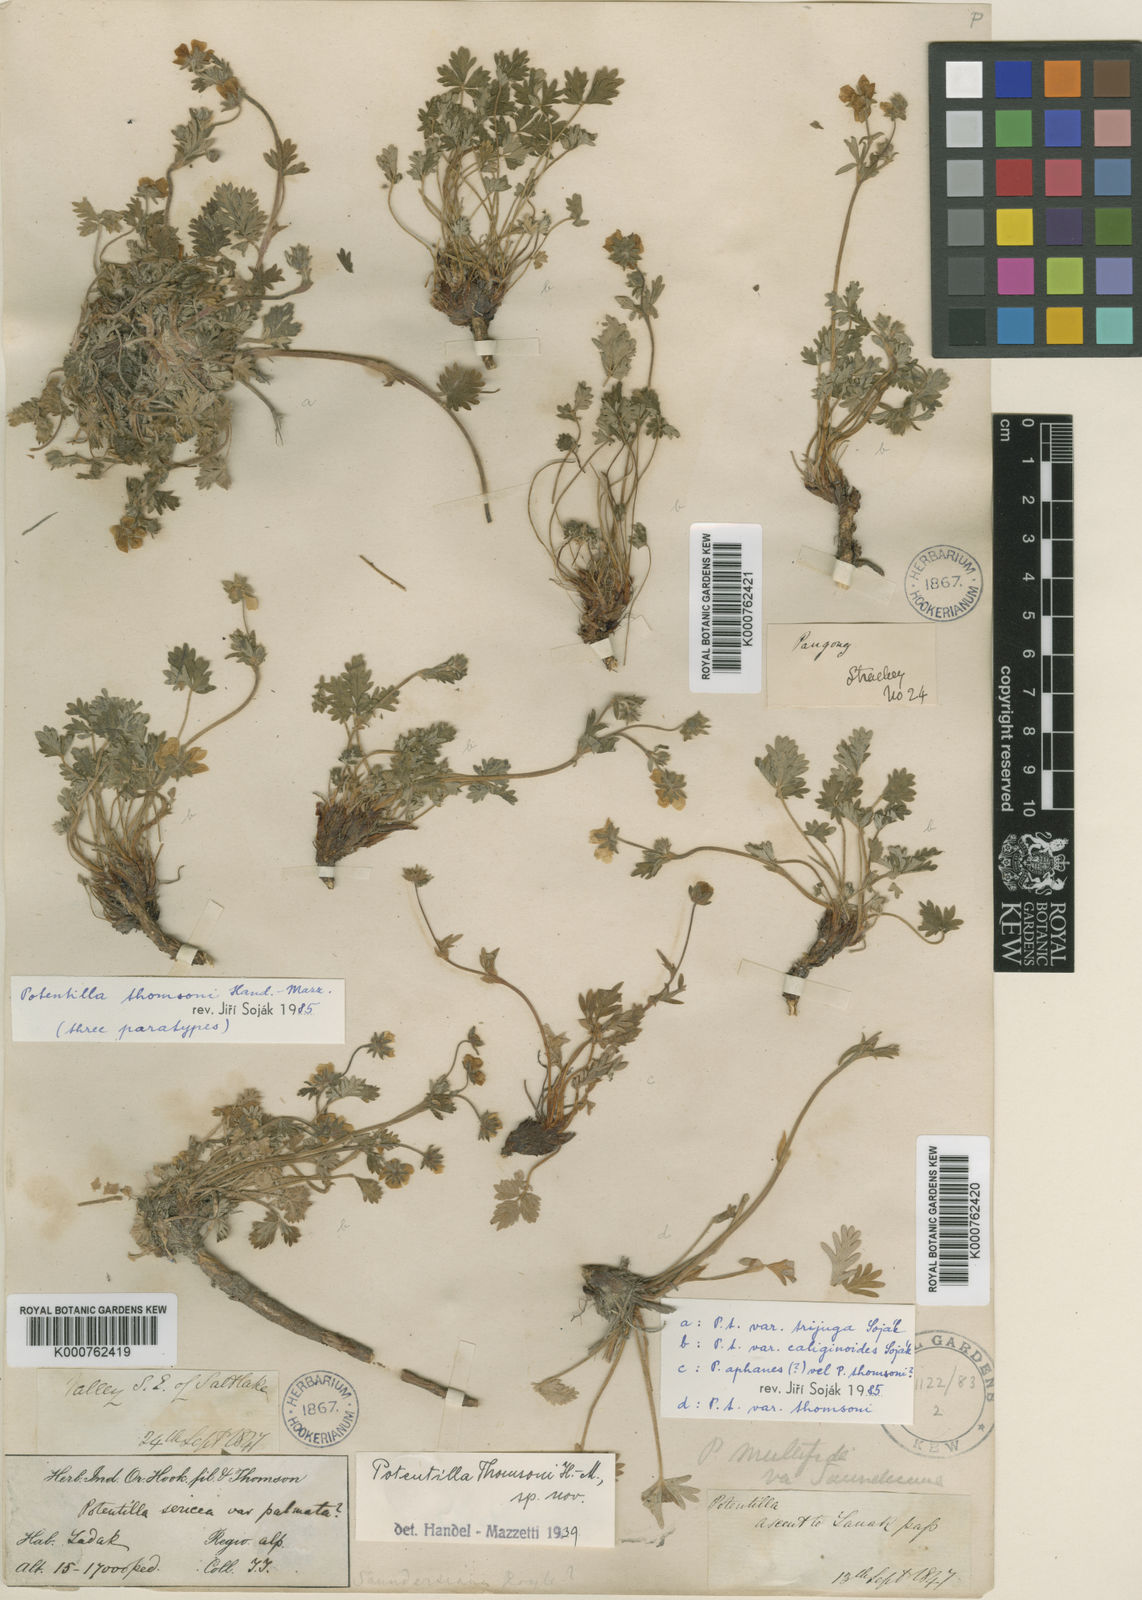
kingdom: Plantae
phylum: Tracheophyta
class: Magnoliopsida
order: Rosales
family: Rosaceae
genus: Potentilla
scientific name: Potentilla pamirica
